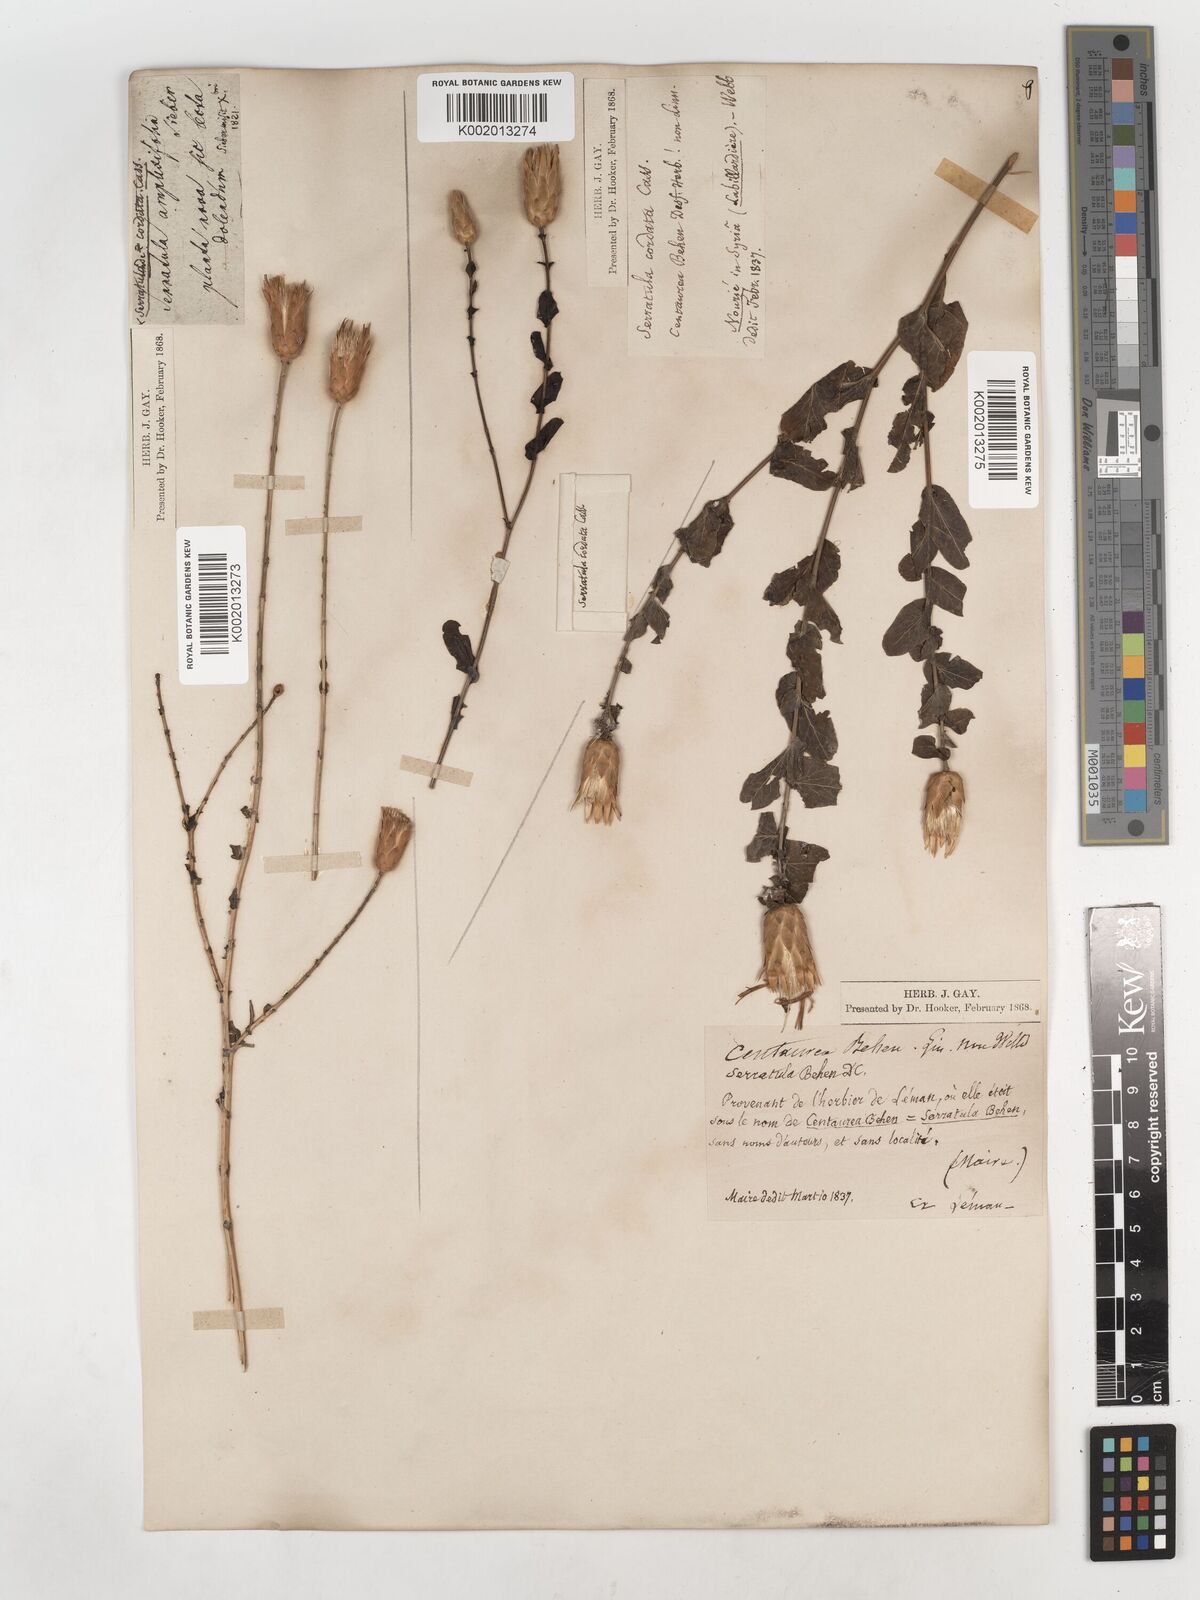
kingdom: Plantae
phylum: Tracheophyta
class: Magnoliopsida
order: Asterales
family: Asteraceae
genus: Klasea
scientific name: Klasea cerinthifolia
